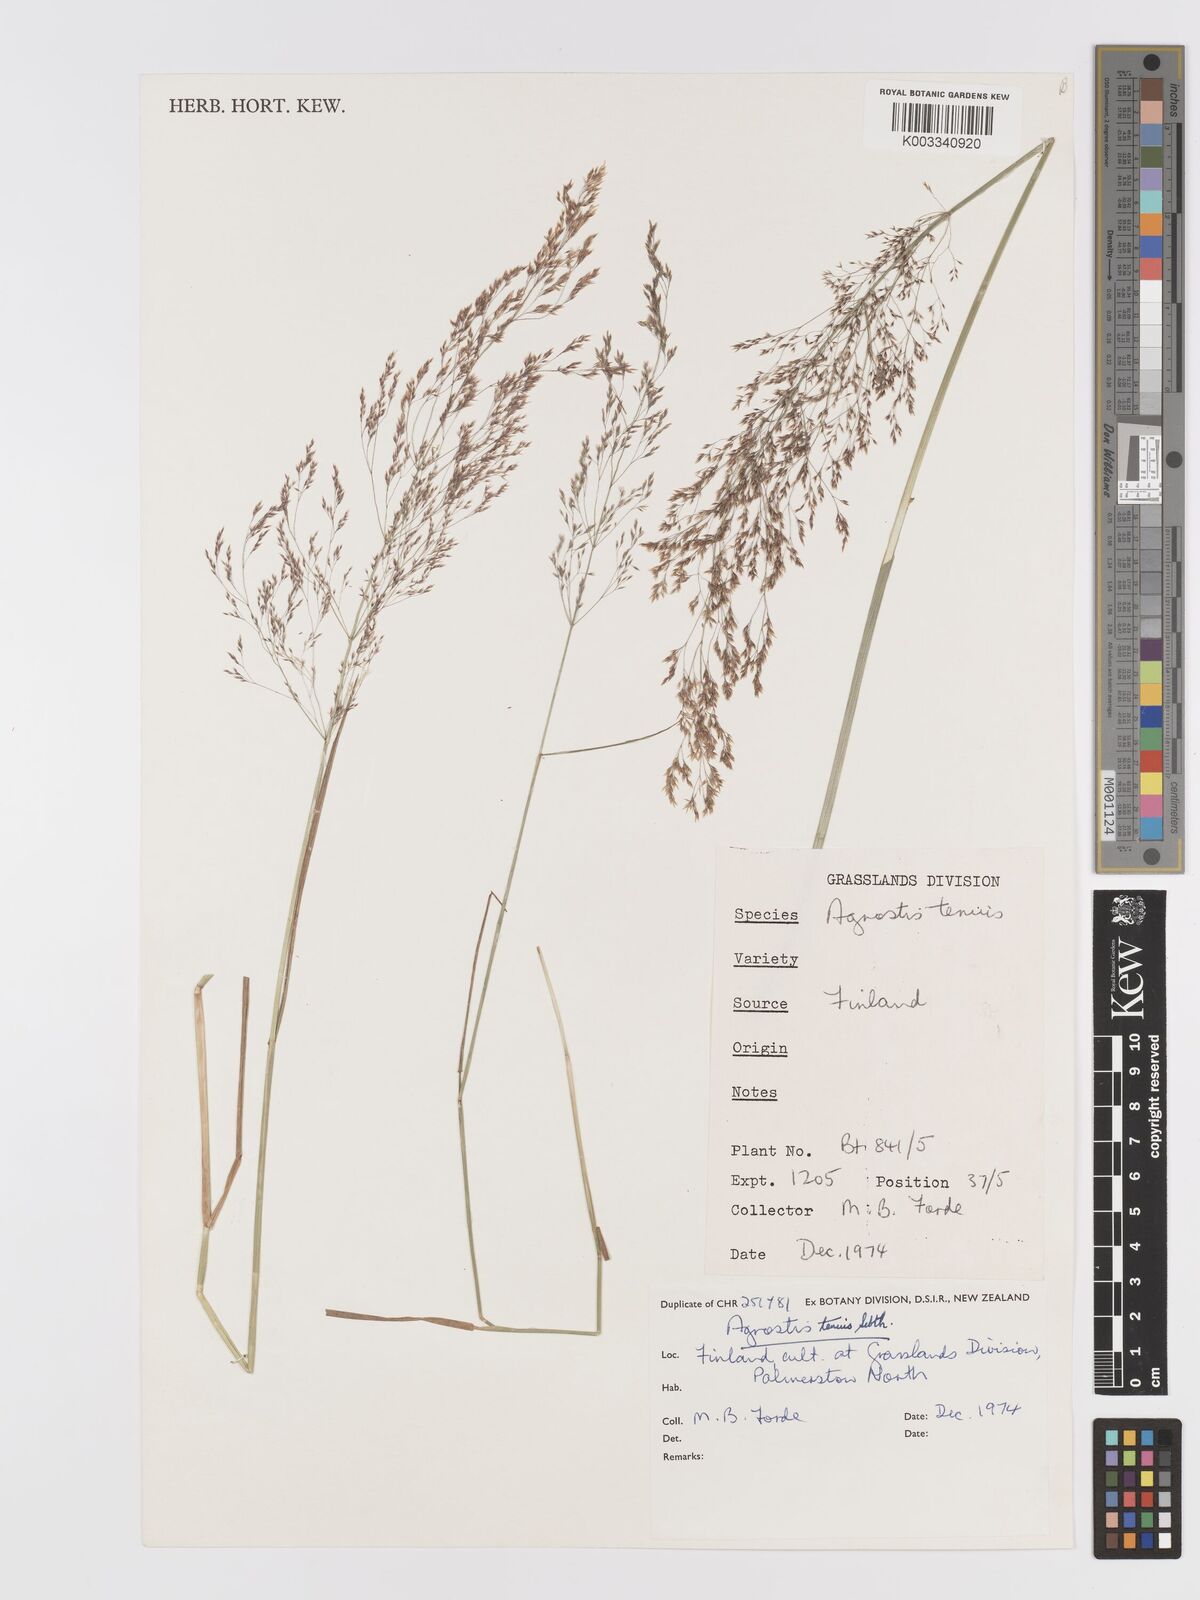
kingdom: Plantae
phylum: Tracheophyta
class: Liliopsida
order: Poales
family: Poaceae
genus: Agrostis
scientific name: Agrostis capillaris
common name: Colonial bentgrass
